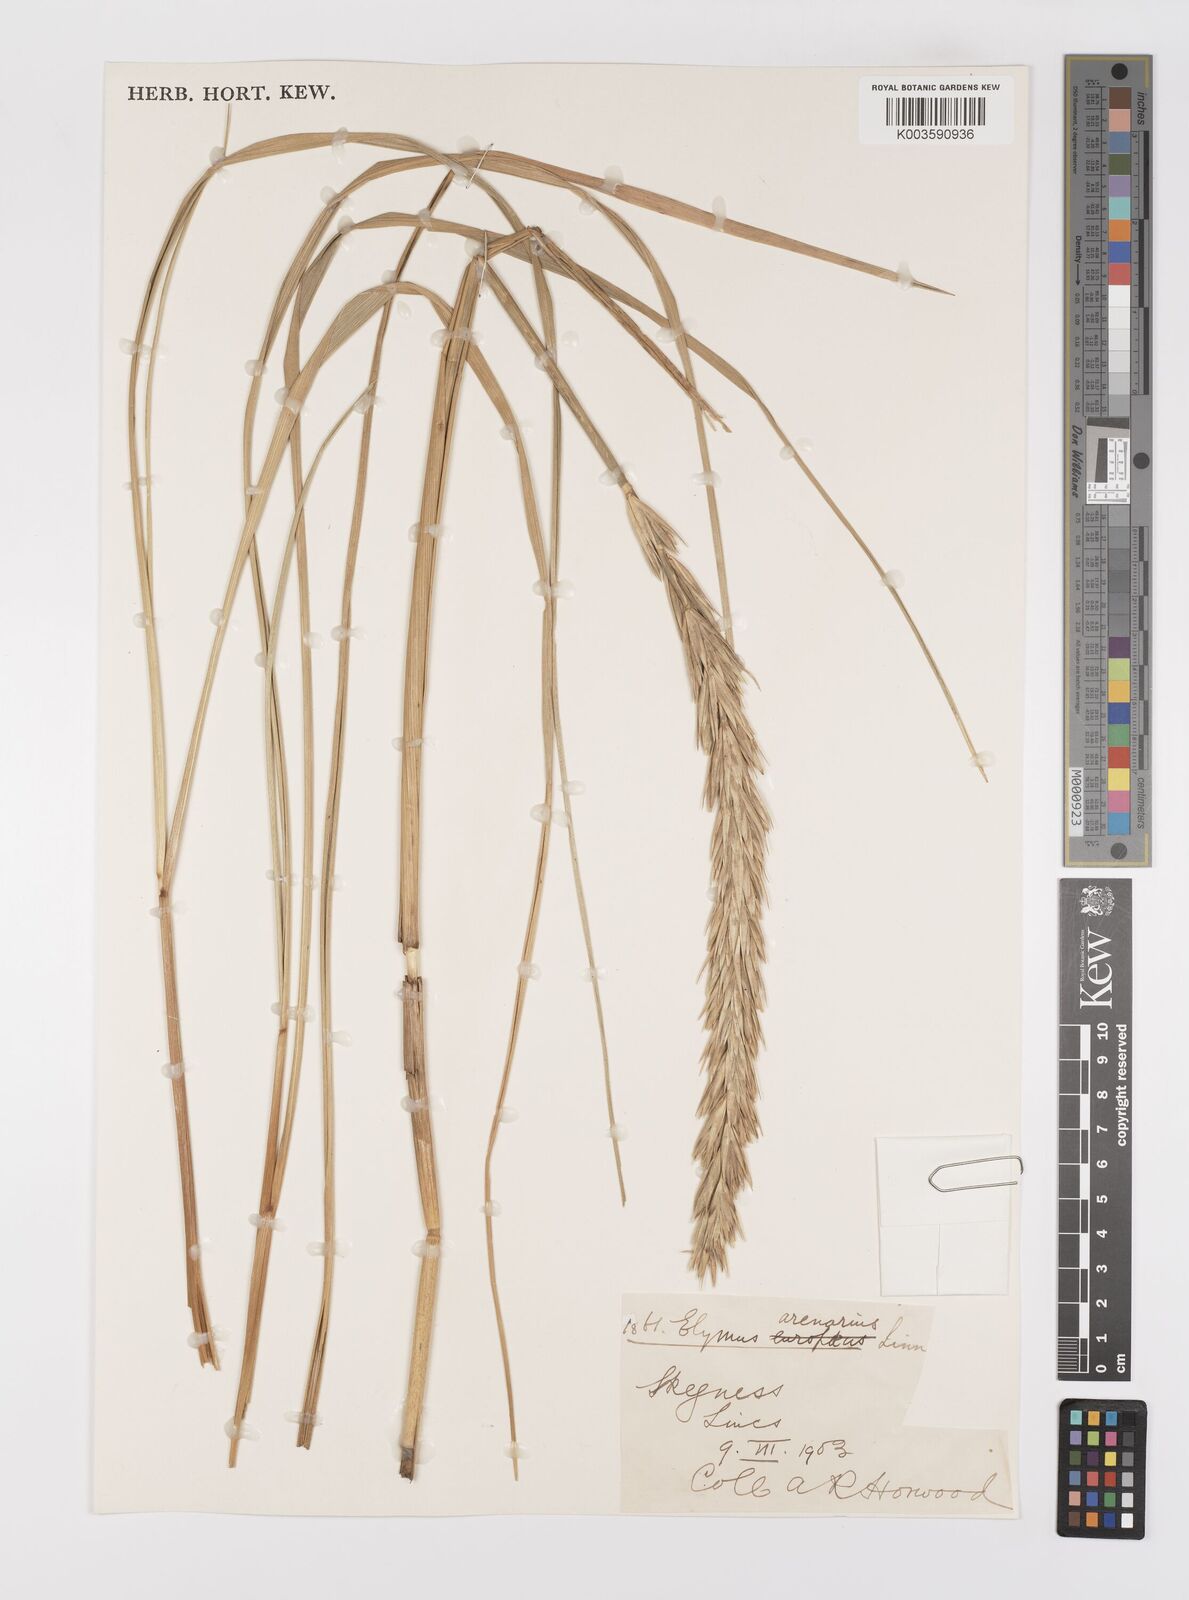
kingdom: Plantae
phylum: Tracheophyta
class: Liliopsida
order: Poales
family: Poaceae
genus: Leymus
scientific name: Leymus
